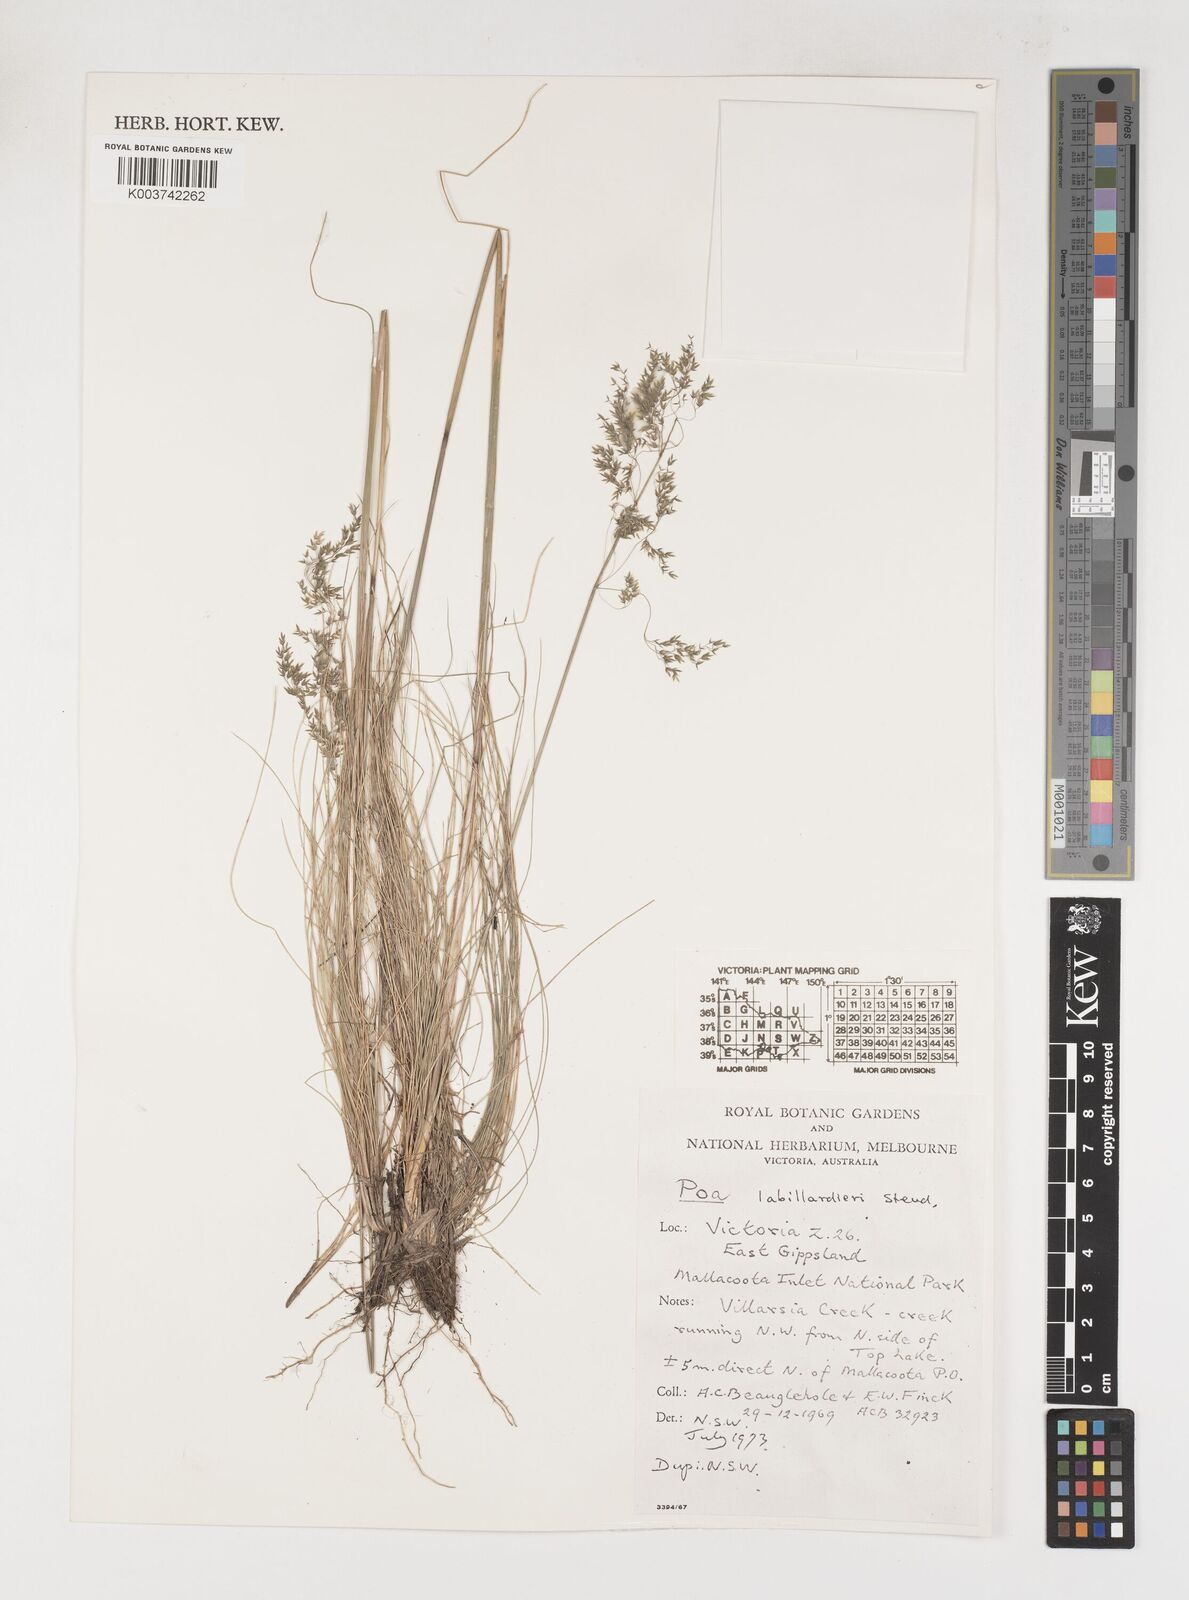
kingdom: Plantae
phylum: Tracheophyta
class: Liliopsida
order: Poales
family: Poaceae
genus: Poa
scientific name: Poa labillardierei
